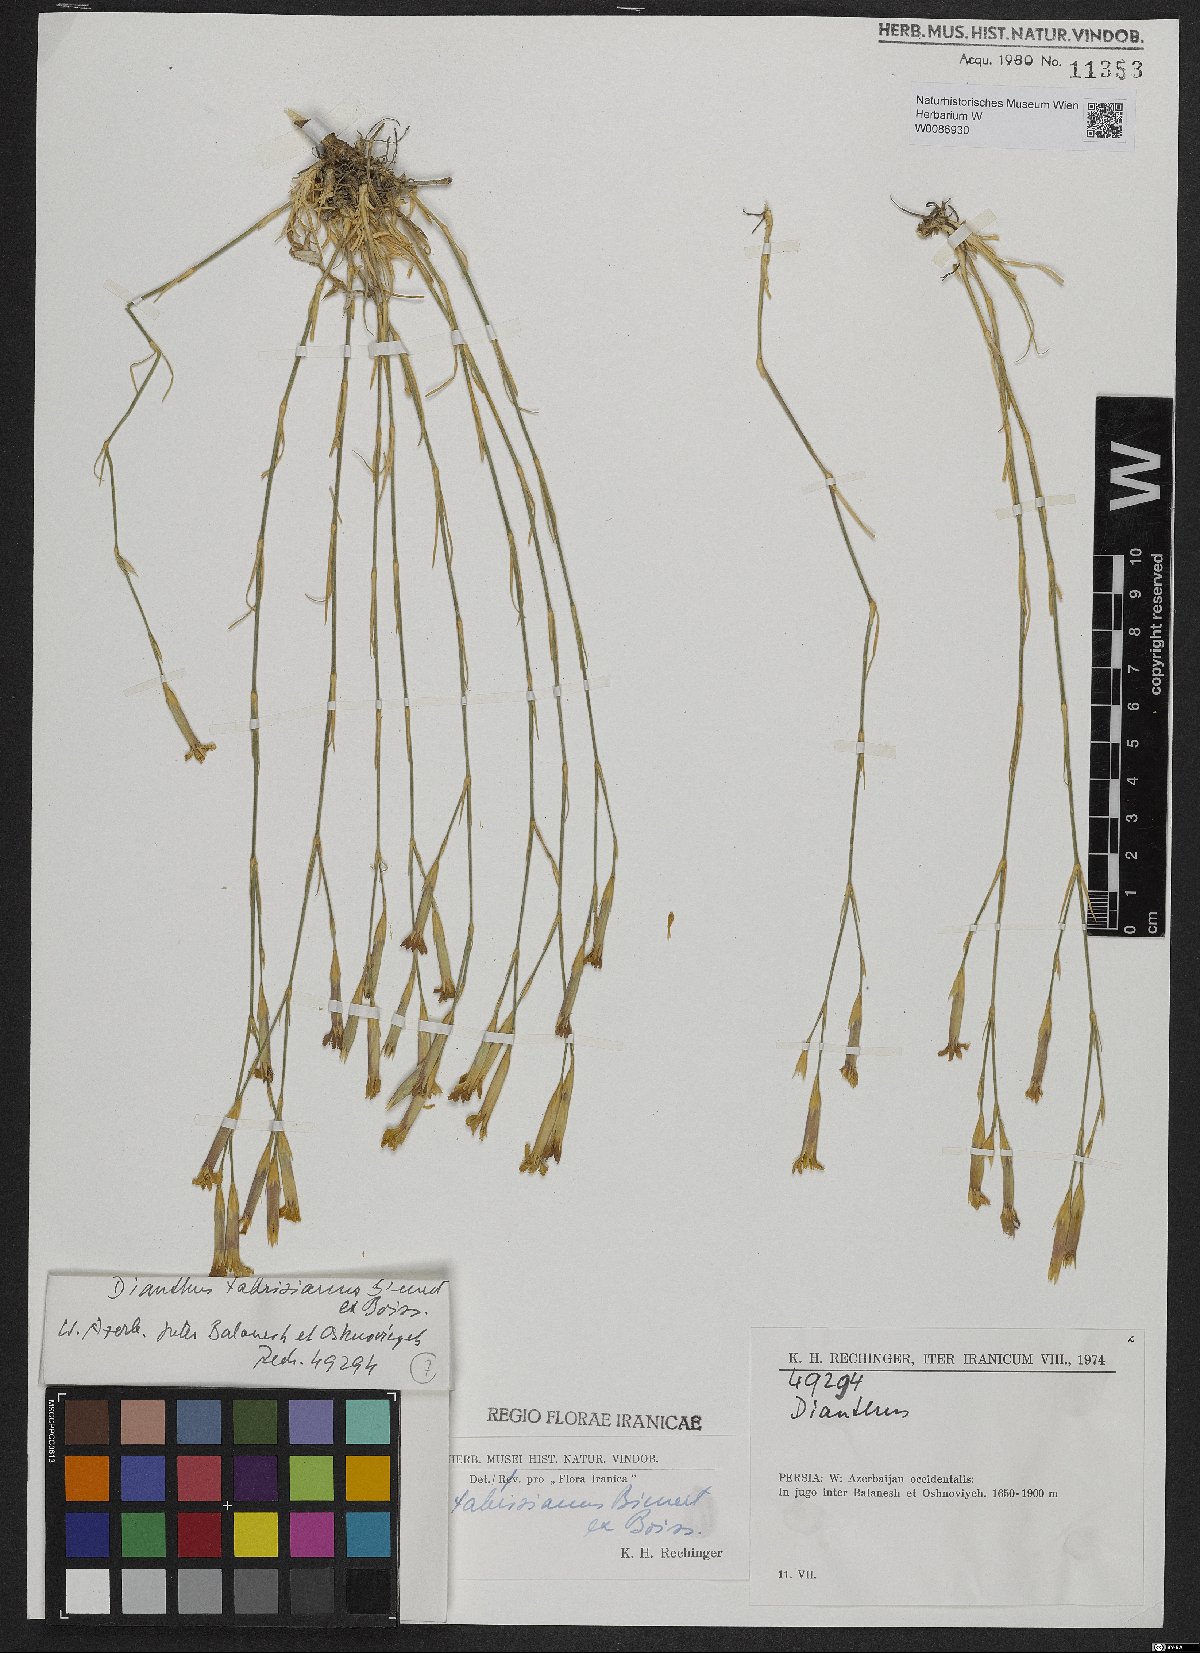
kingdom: Plantae
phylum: Tracheophyta
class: Magnoliopsida
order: Caryophyllales
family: Caryophyllaceae
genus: Dianthus
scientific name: Dianthus tabrisianus
